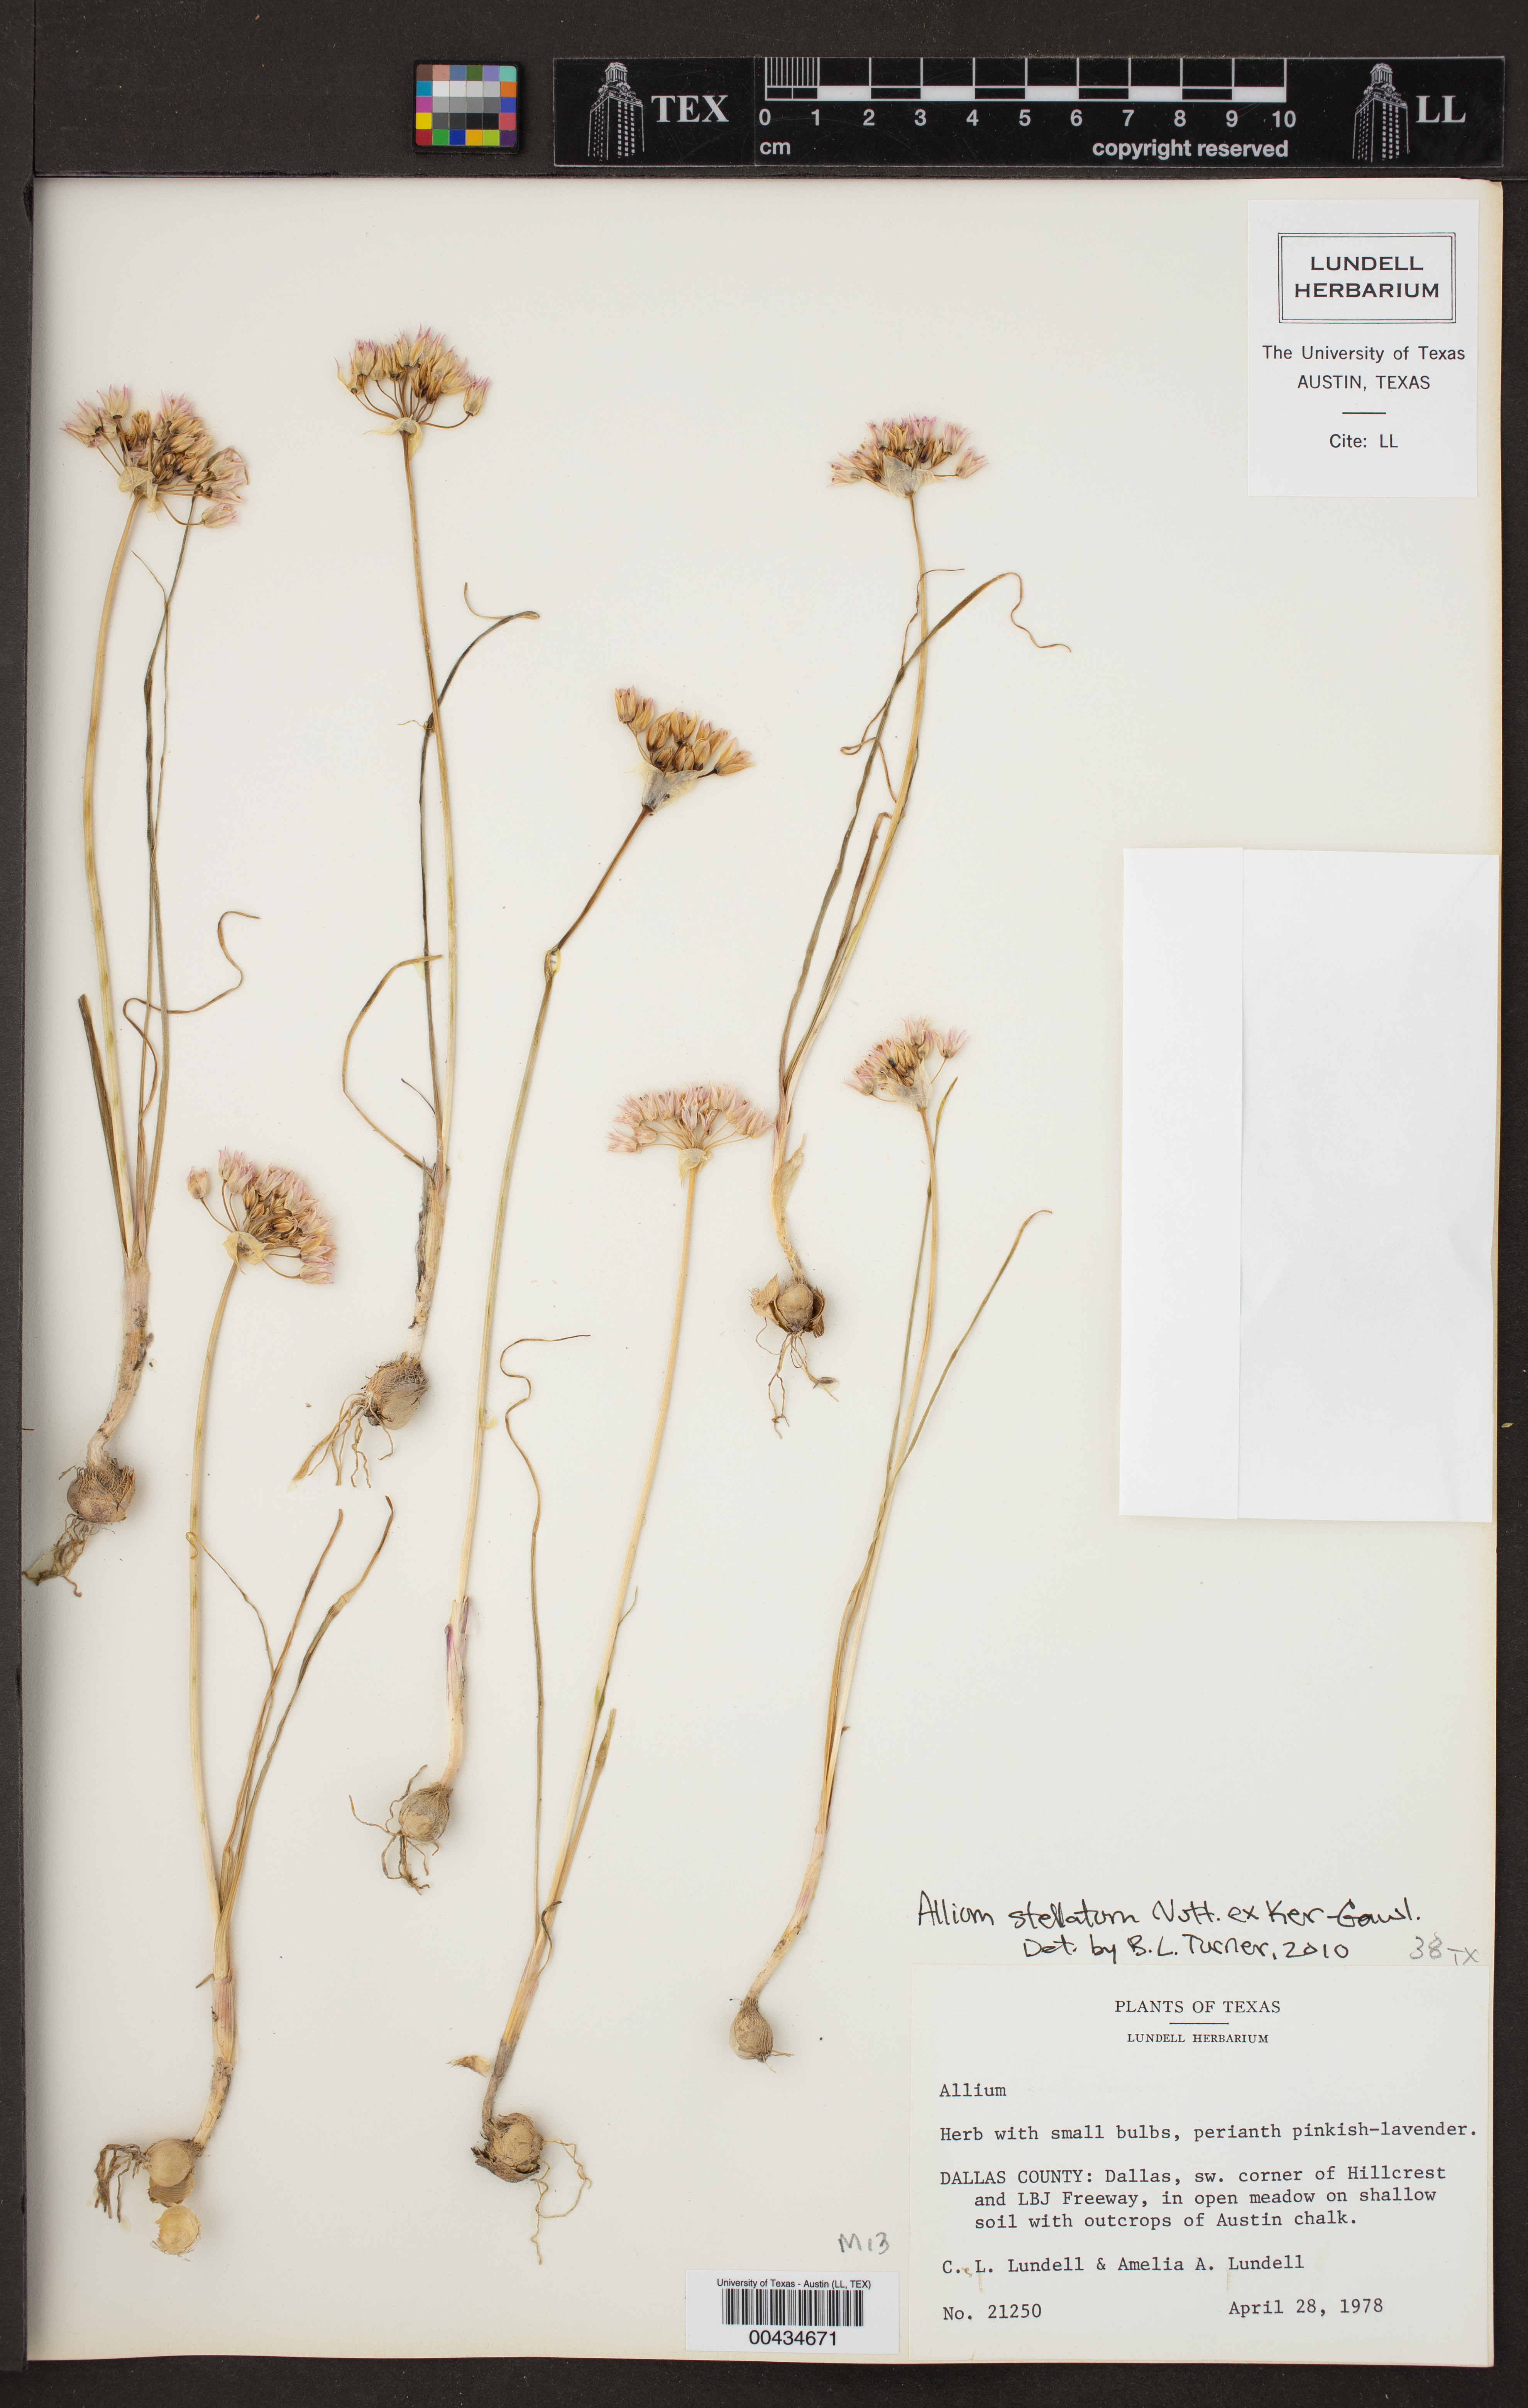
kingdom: Plantae
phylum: Tracheophyta
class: Liliopsida
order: Asparagales
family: Amaryllidaceae
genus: Allium
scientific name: Allium stellatum
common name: Autumn onion
